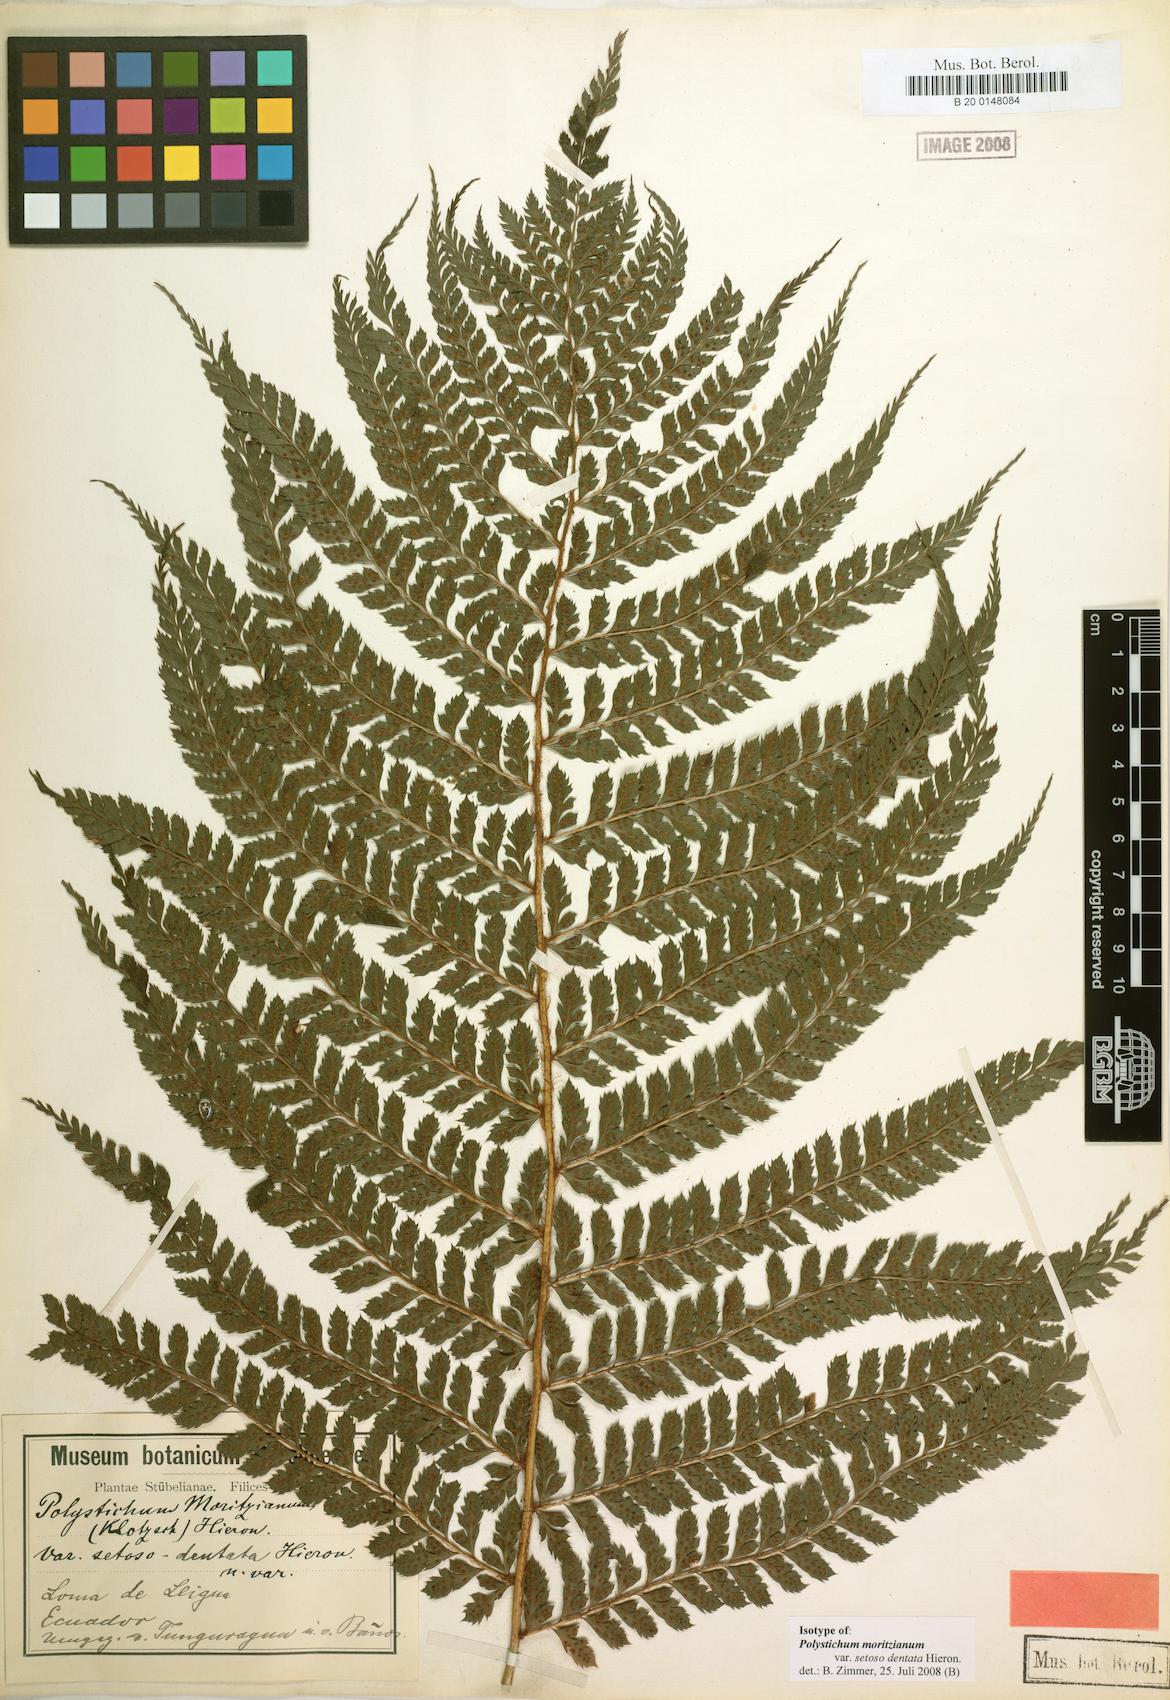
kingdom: Plantae
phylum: Tracheophyta
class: Polypodiopsida
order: Polypodiales
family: Dryopteridaceae
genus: Polystichum
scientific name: Polystichum muricatum
